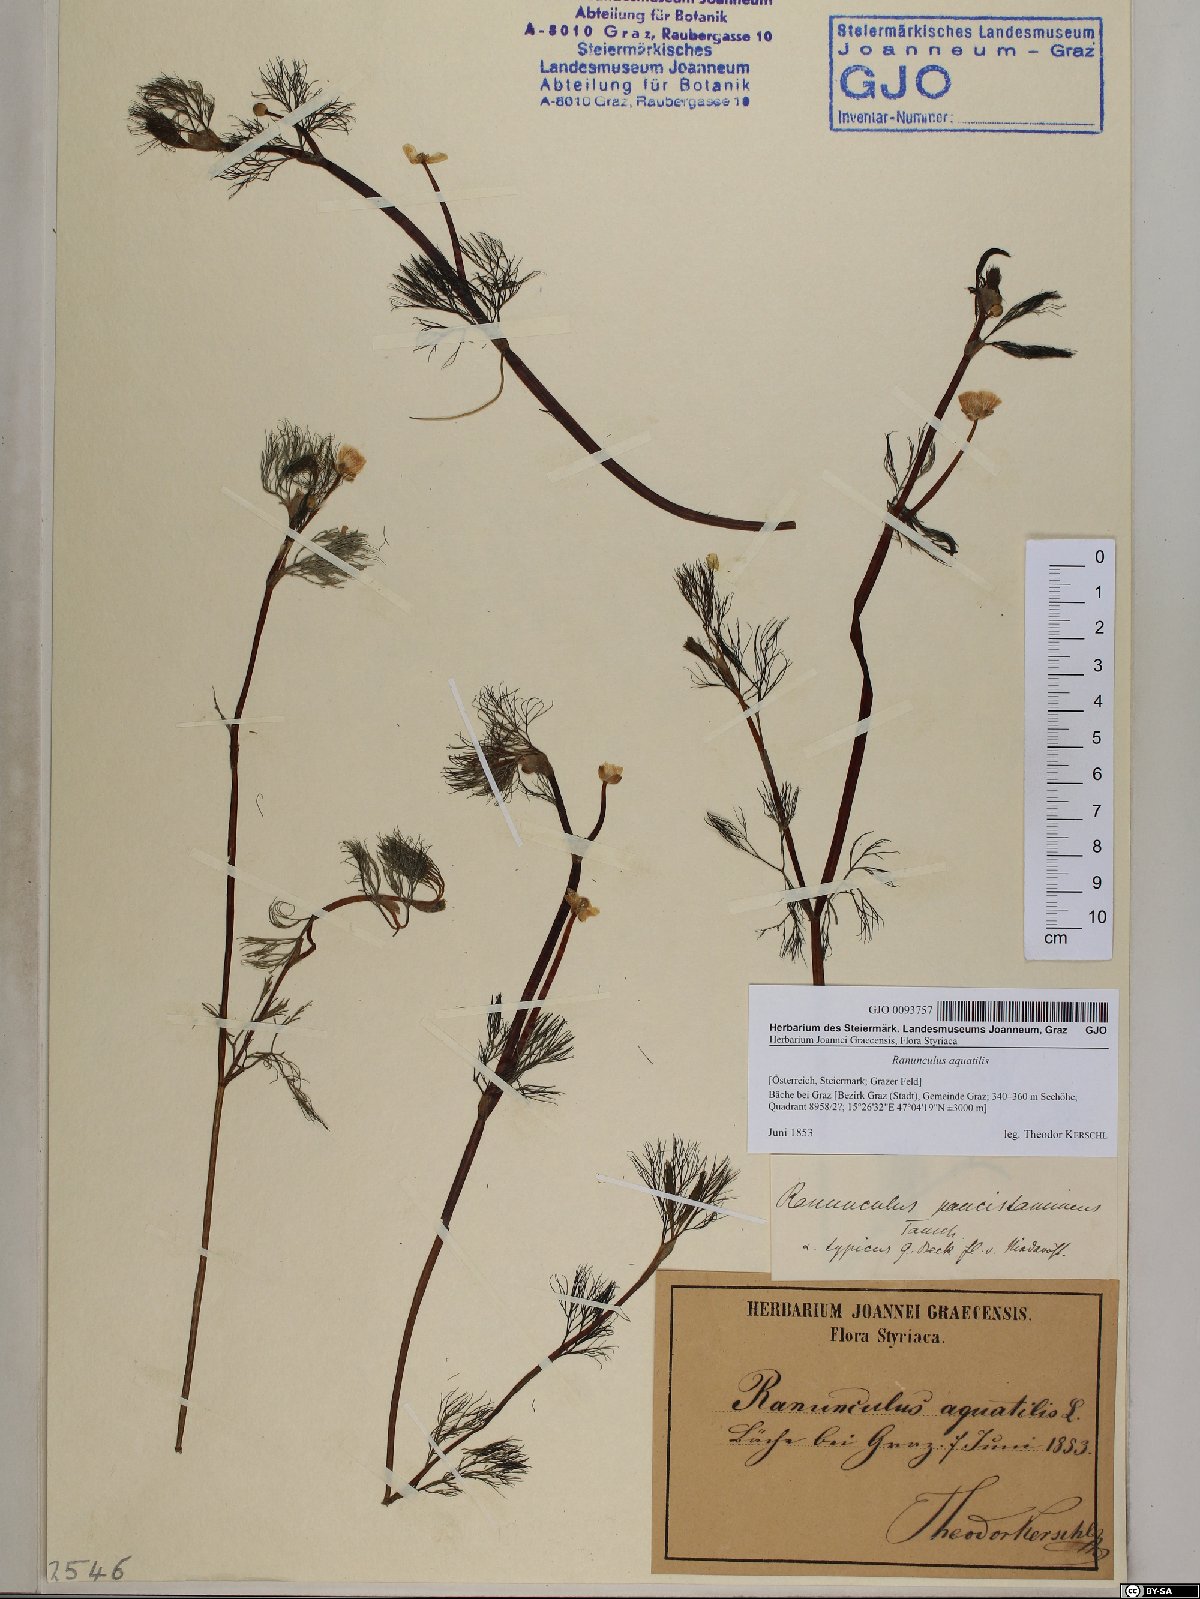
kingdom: Plantae
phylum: Tracheophyta
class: Magnoliopsida
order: Ranunculales
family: Ranunculaceae
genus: Ranunculus
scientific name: Ranunculus aquatilis
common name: Common water-crowfoot
